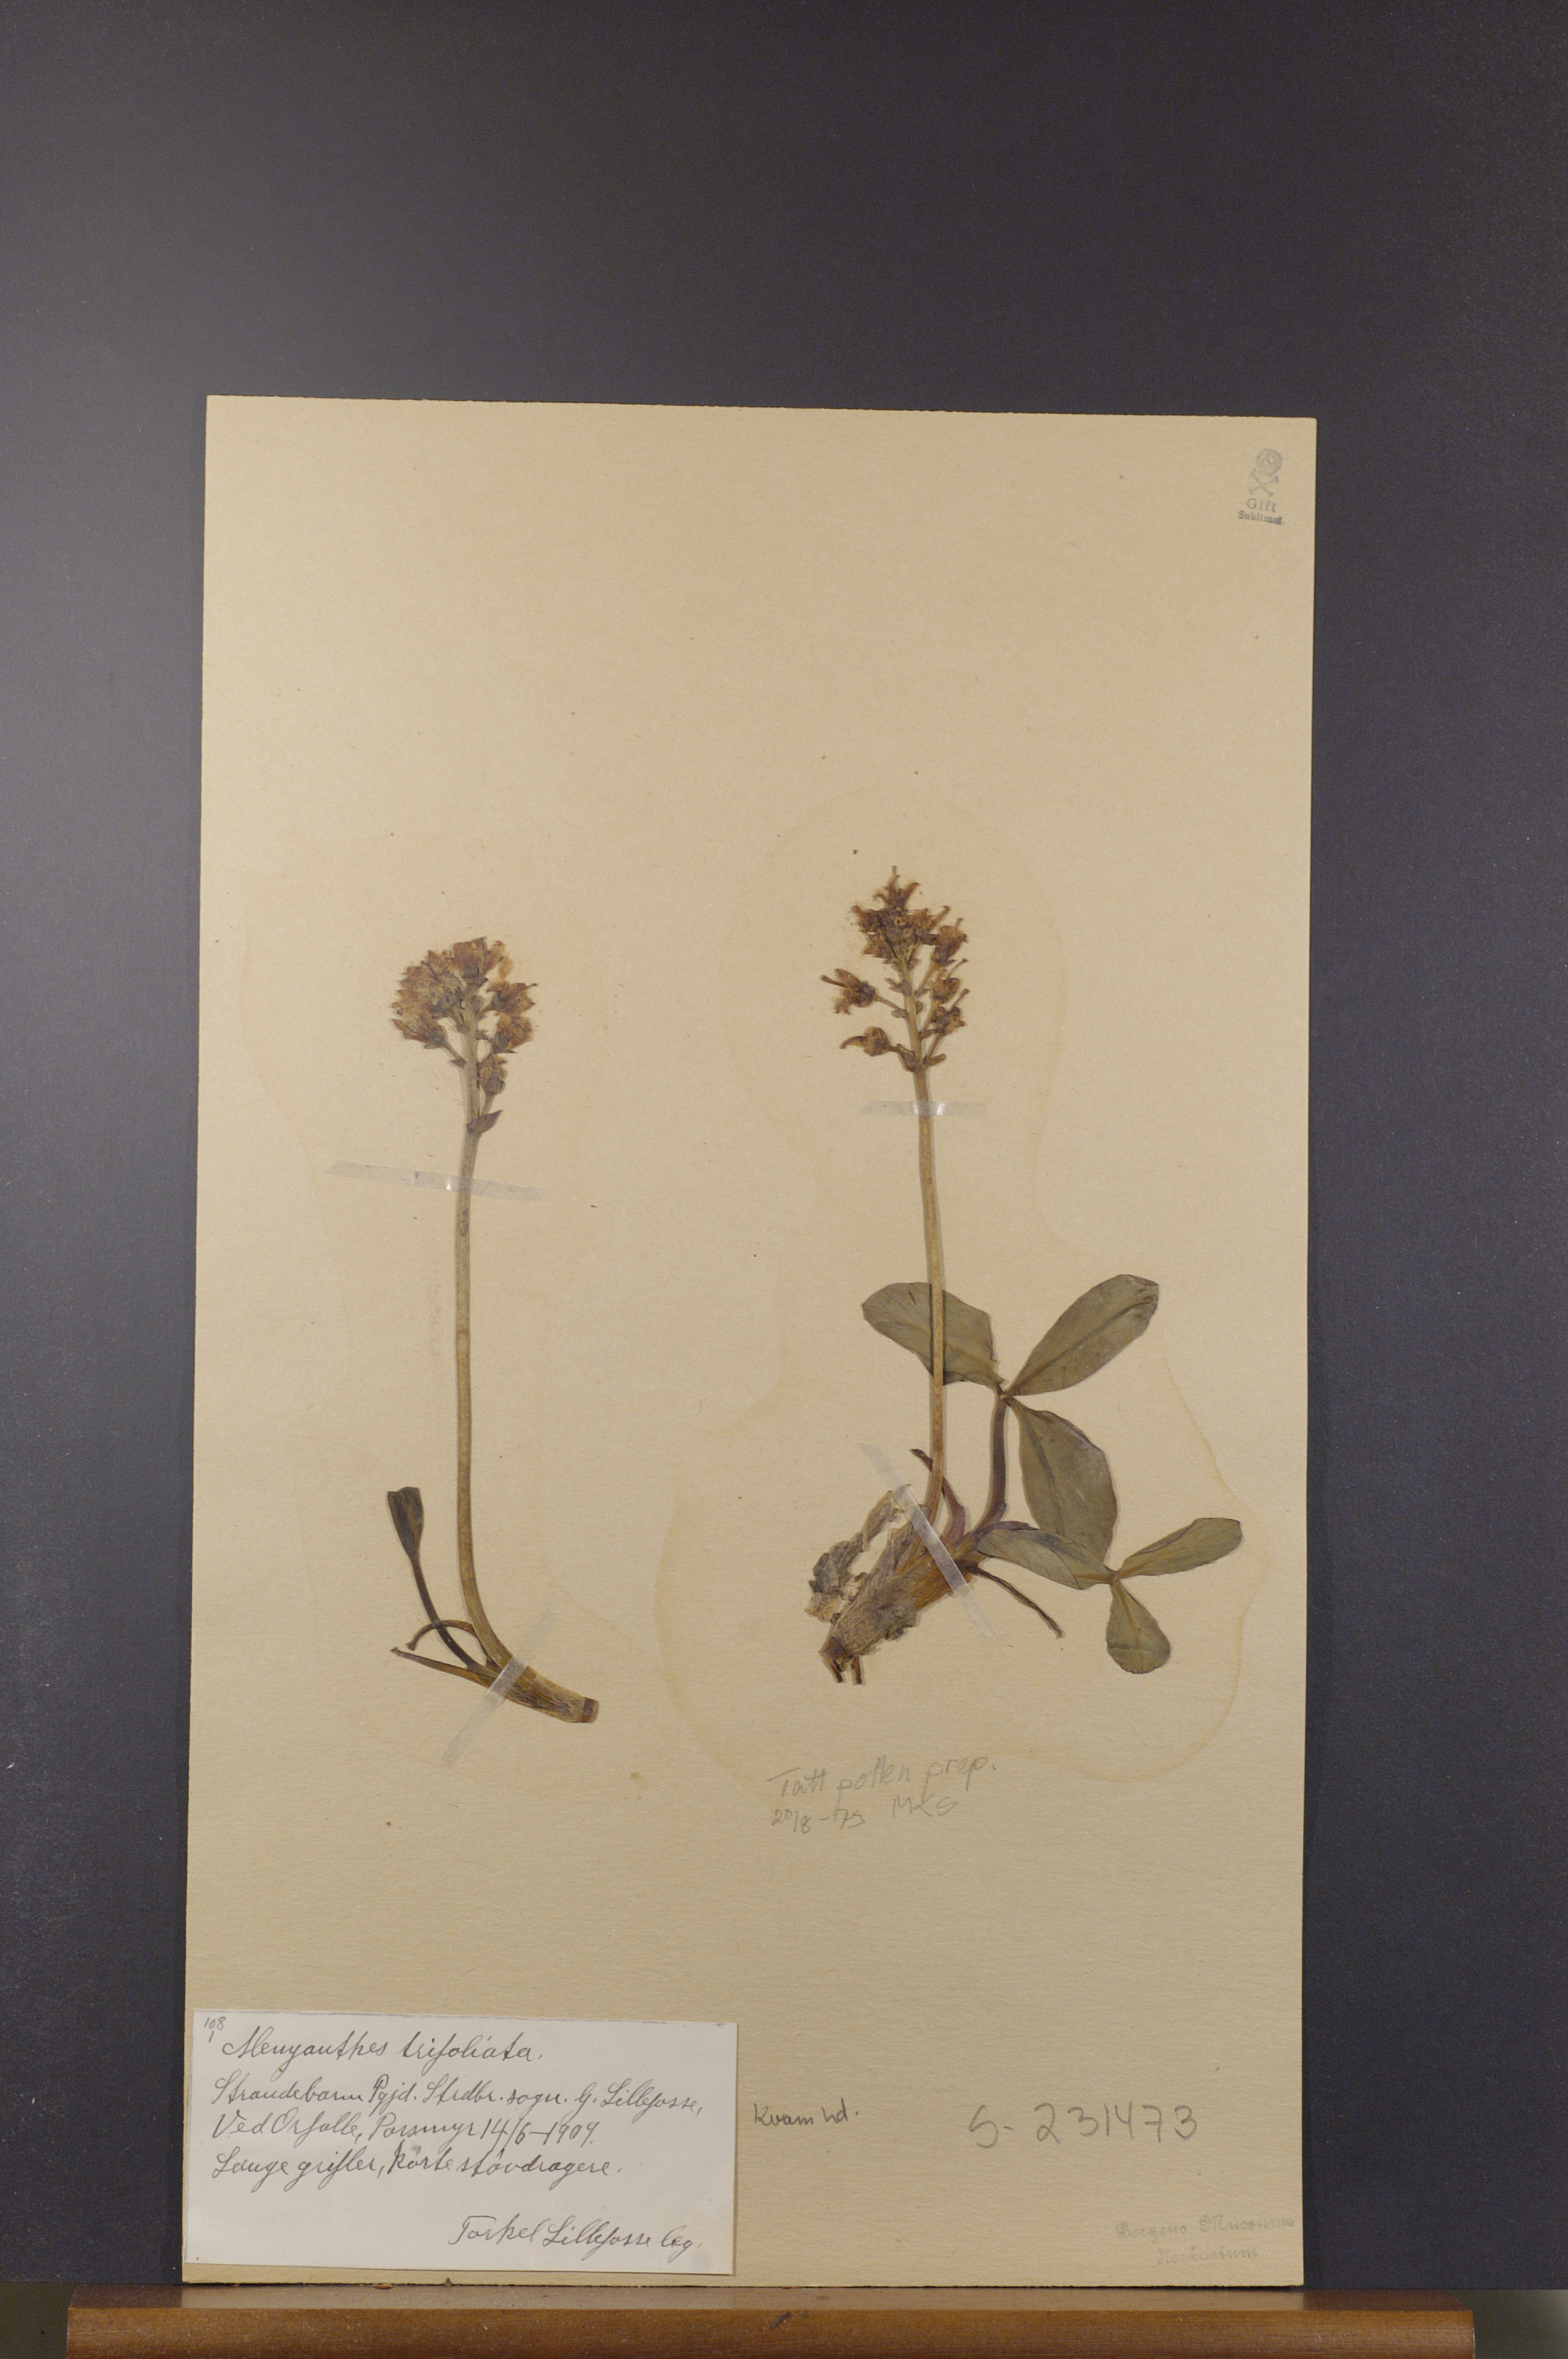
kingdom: Plantae
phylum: Tracheophyta
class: Magnoliopsida
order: Asterales
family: Menyanthaceae
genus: Menyanthes
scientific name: Menyanthes trifoliata
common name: Bogbean
